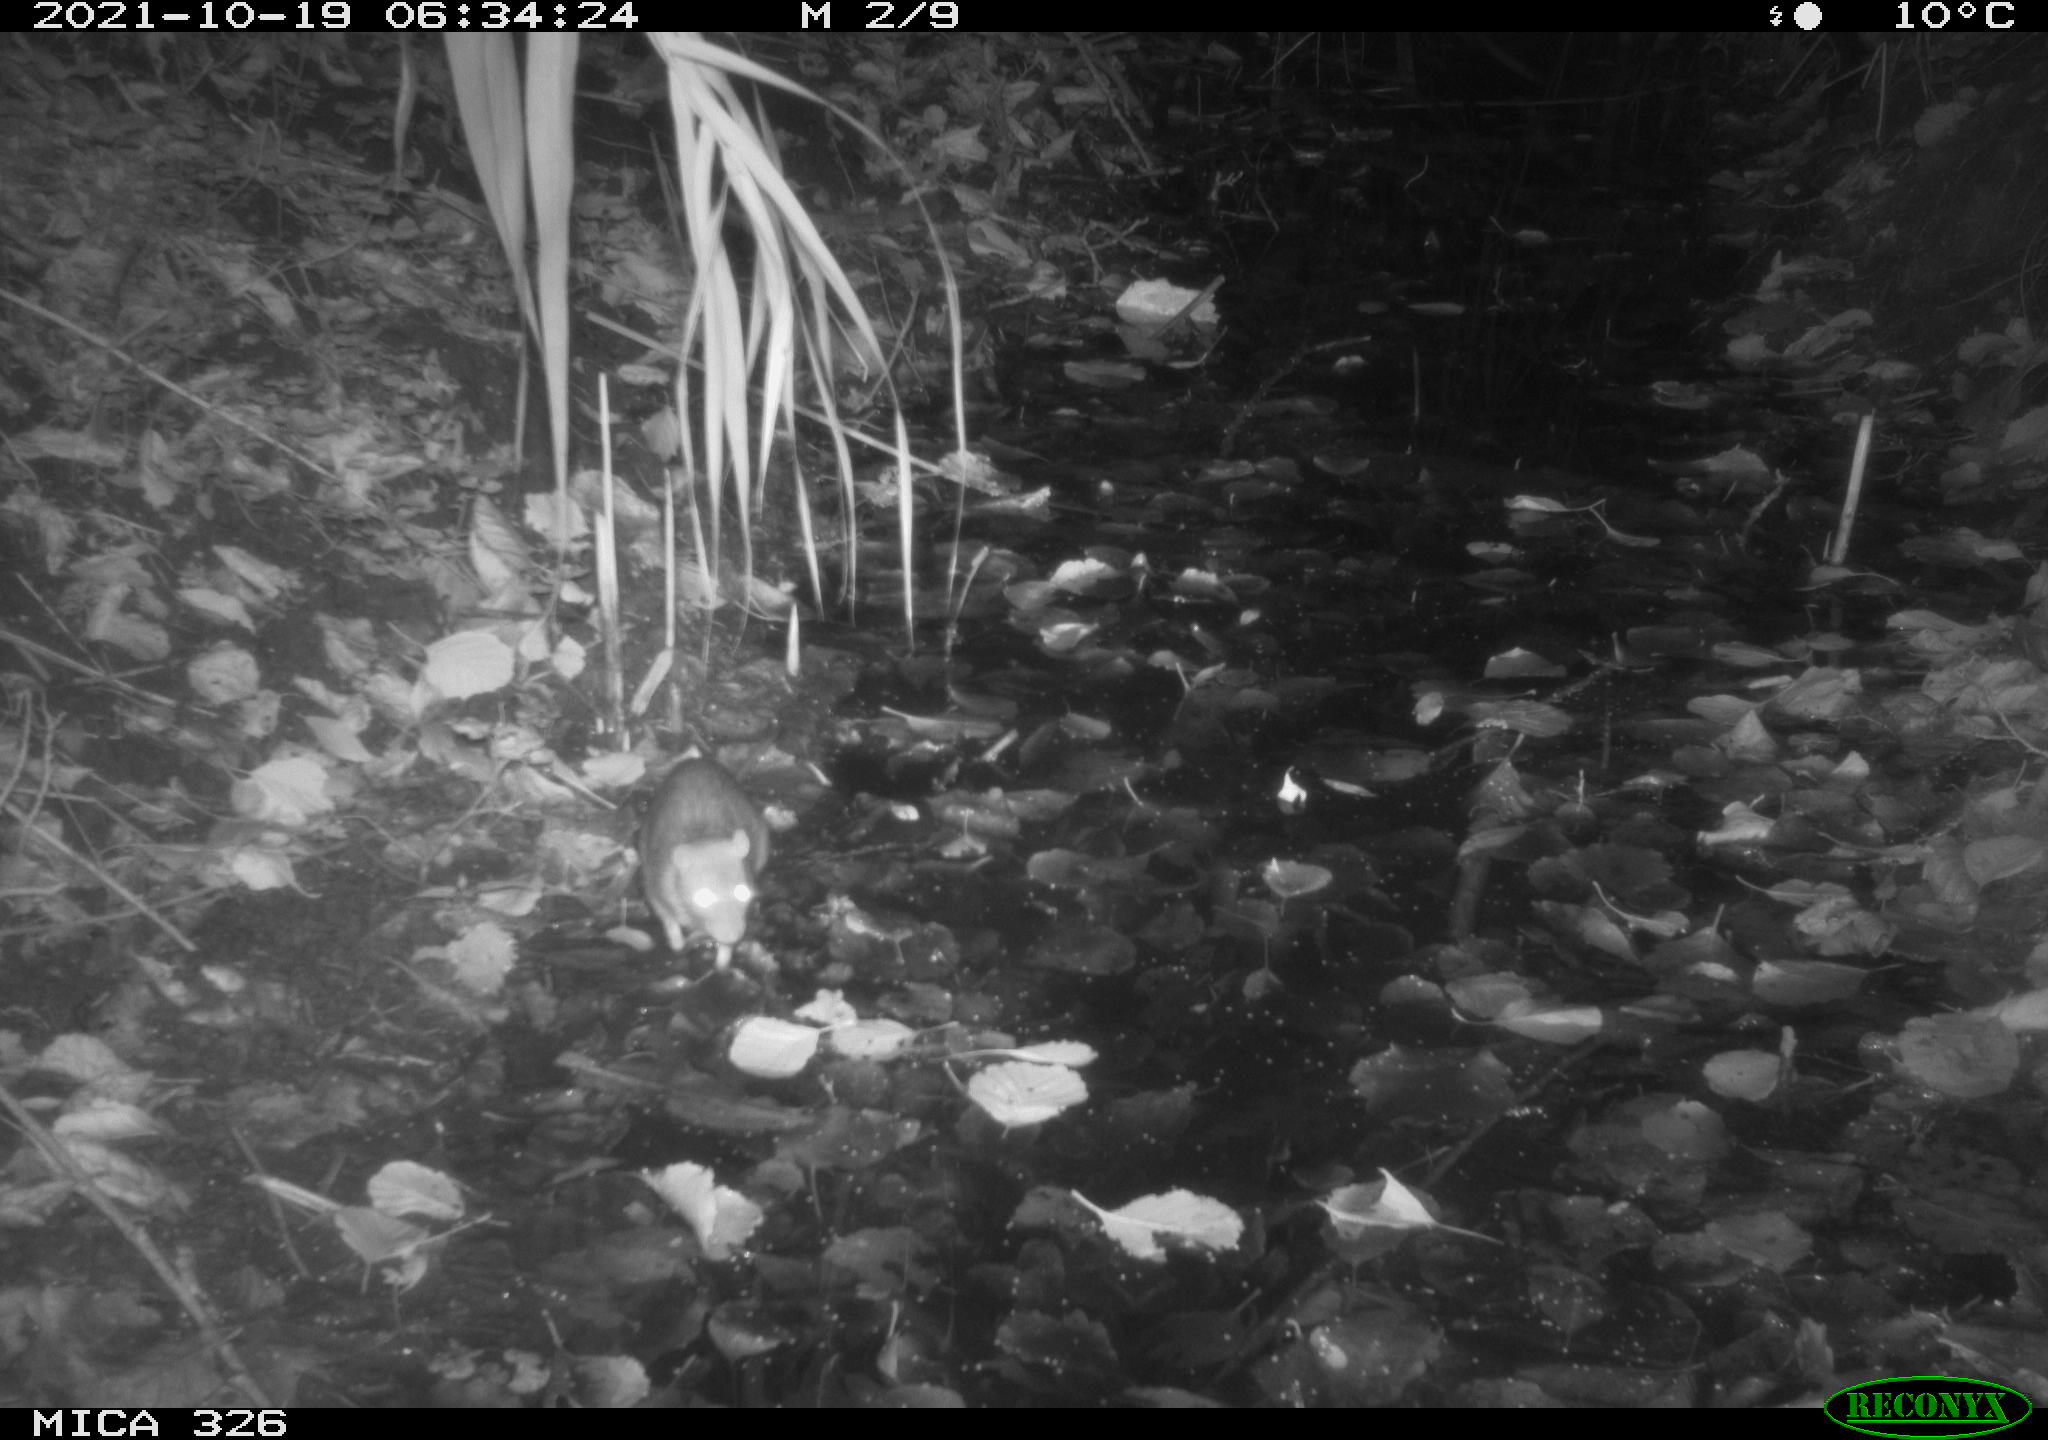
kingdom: Animalia
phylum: Chordata
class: Mammalia
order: Rodentia
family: Muridae
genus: Rattus
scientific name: Rattus norvegicus
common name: Brown rat
